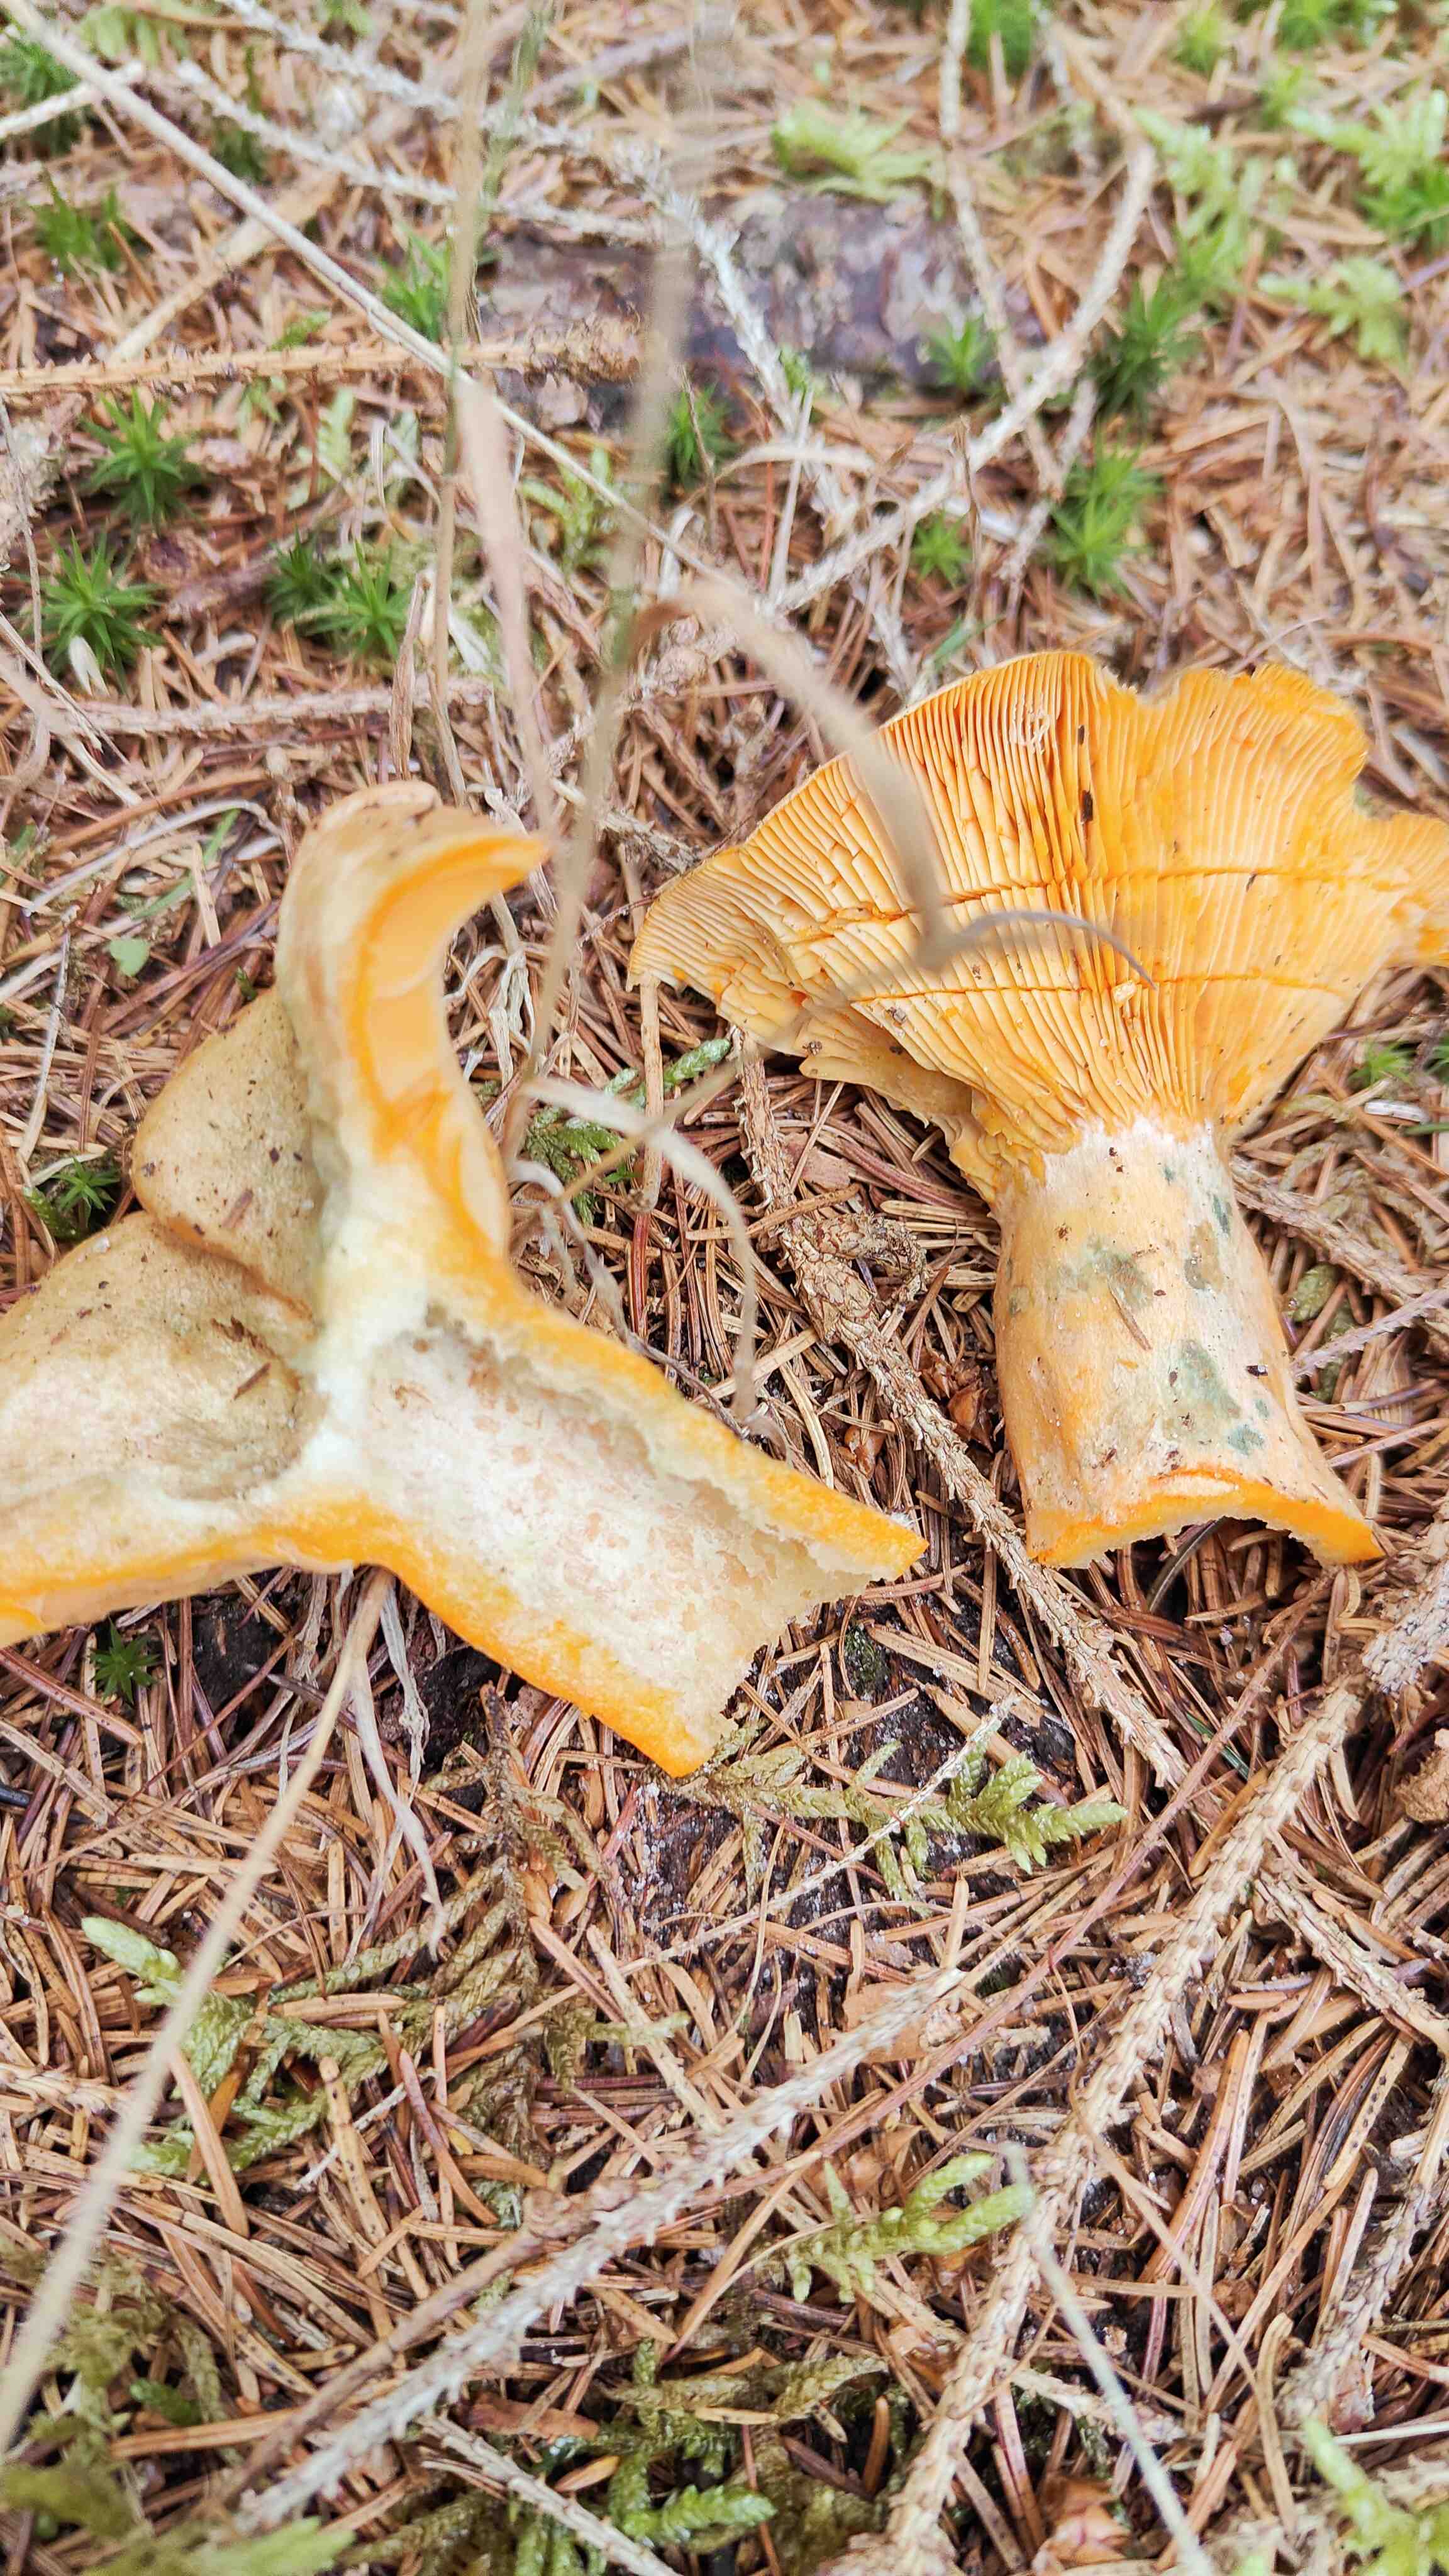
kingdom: Fungi
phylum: Basidiomycota
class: Agaricomycetes
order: Russulales
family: Russulaceae
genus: Lactarius
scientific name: Lactarius deterrimus
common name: gran-mælkehat
